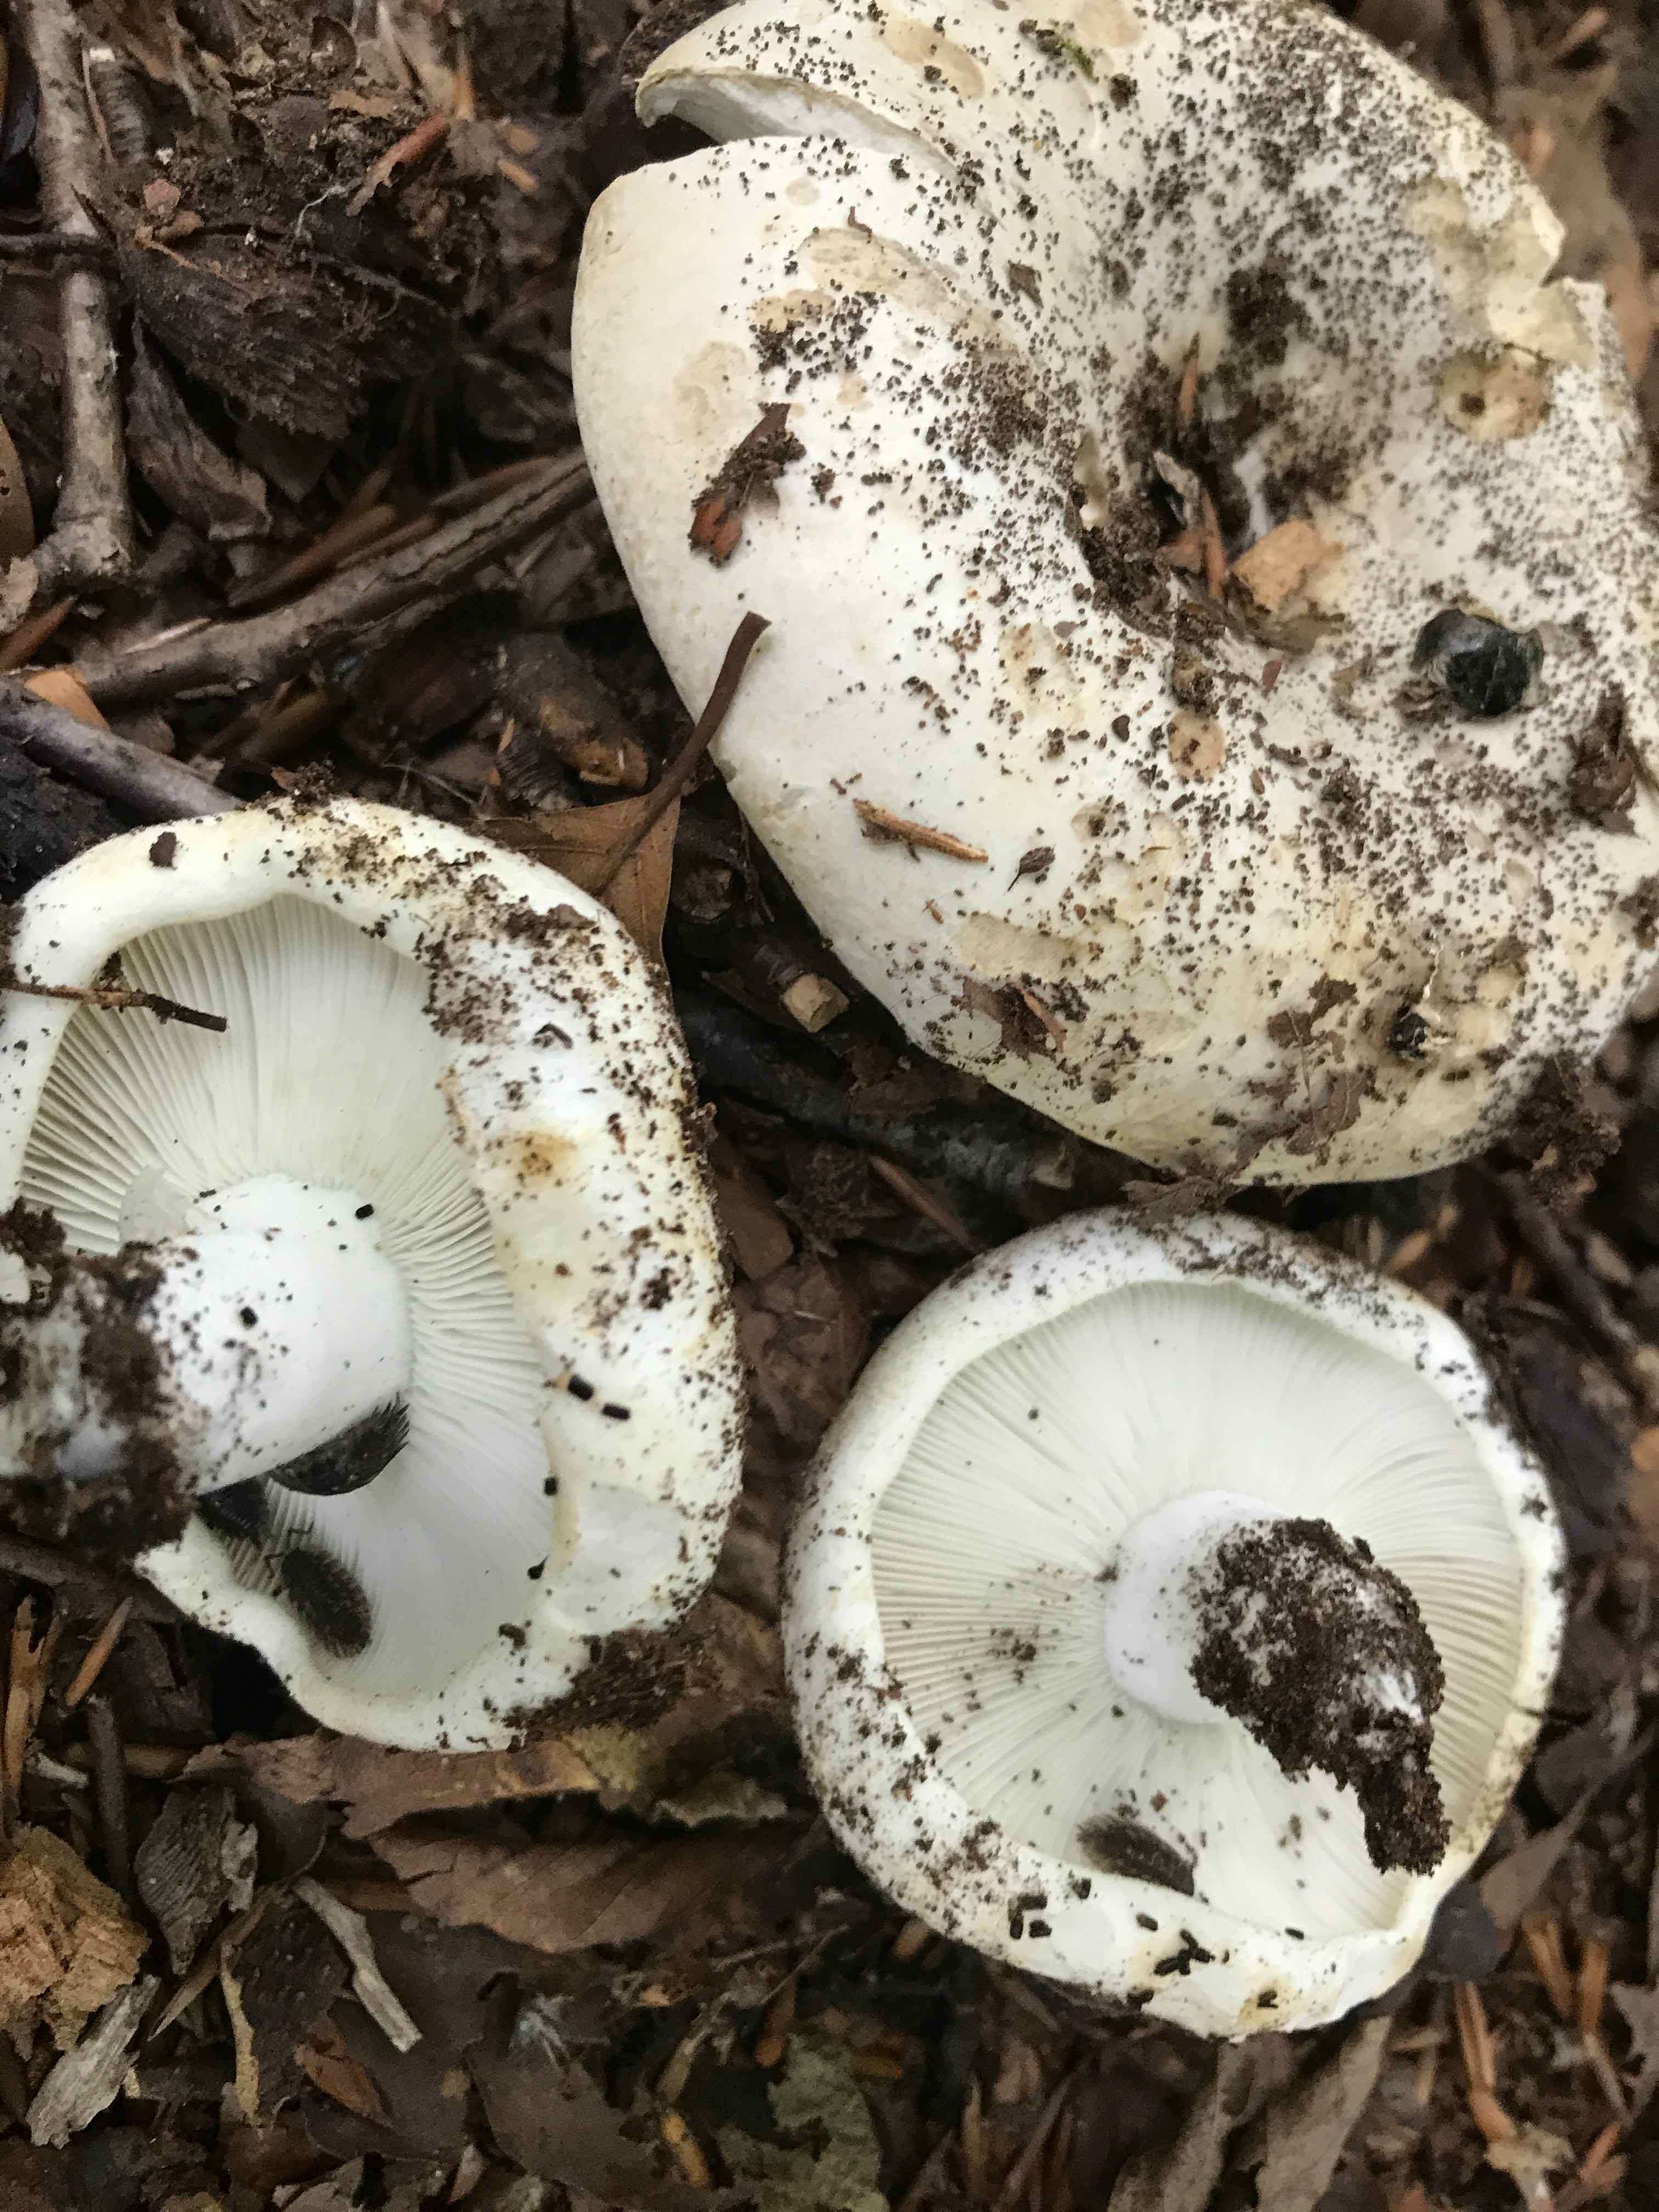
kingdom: Fungi
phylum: Basidiomycota
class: Agaricomycetes
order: Russulales
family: Russulaceae
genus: Russula
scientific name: Russula chloroides
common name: grønhalset tragt-skørhat
